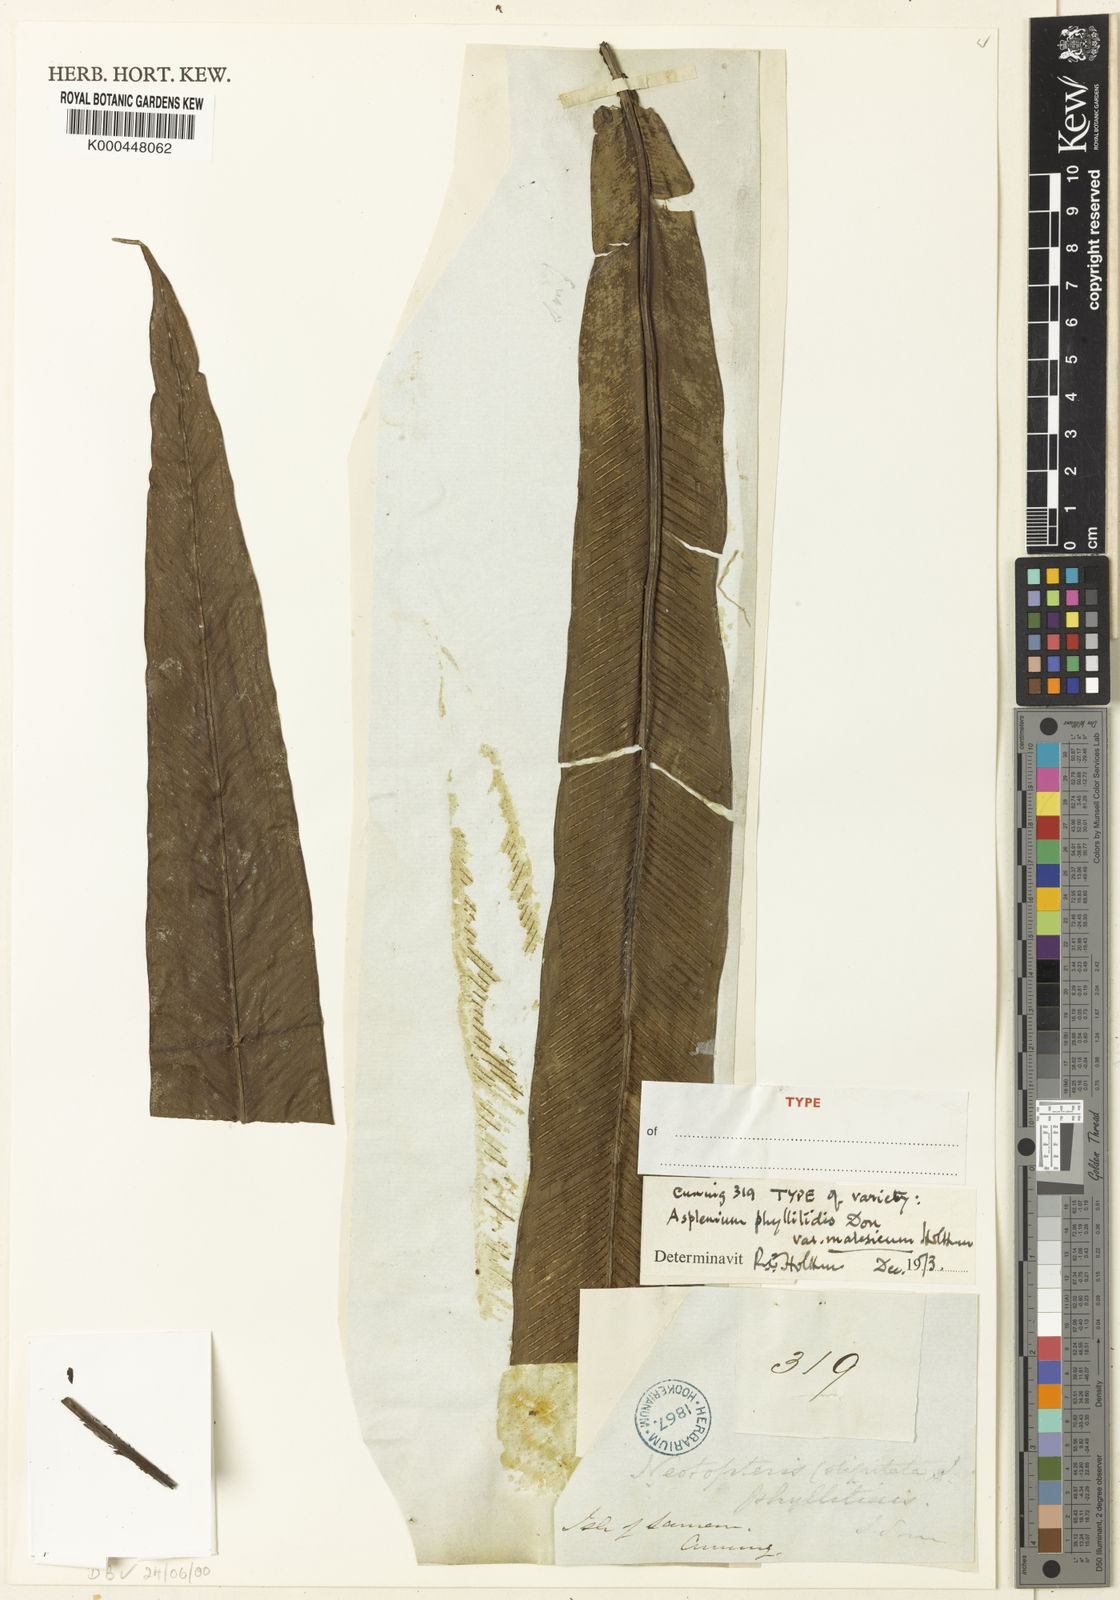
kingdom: Plantae
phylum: Tracheophyta
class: Polypodiopsida
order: Polypodiales
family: Aspleniaceae
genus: Asplenium
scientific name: Asplenium
